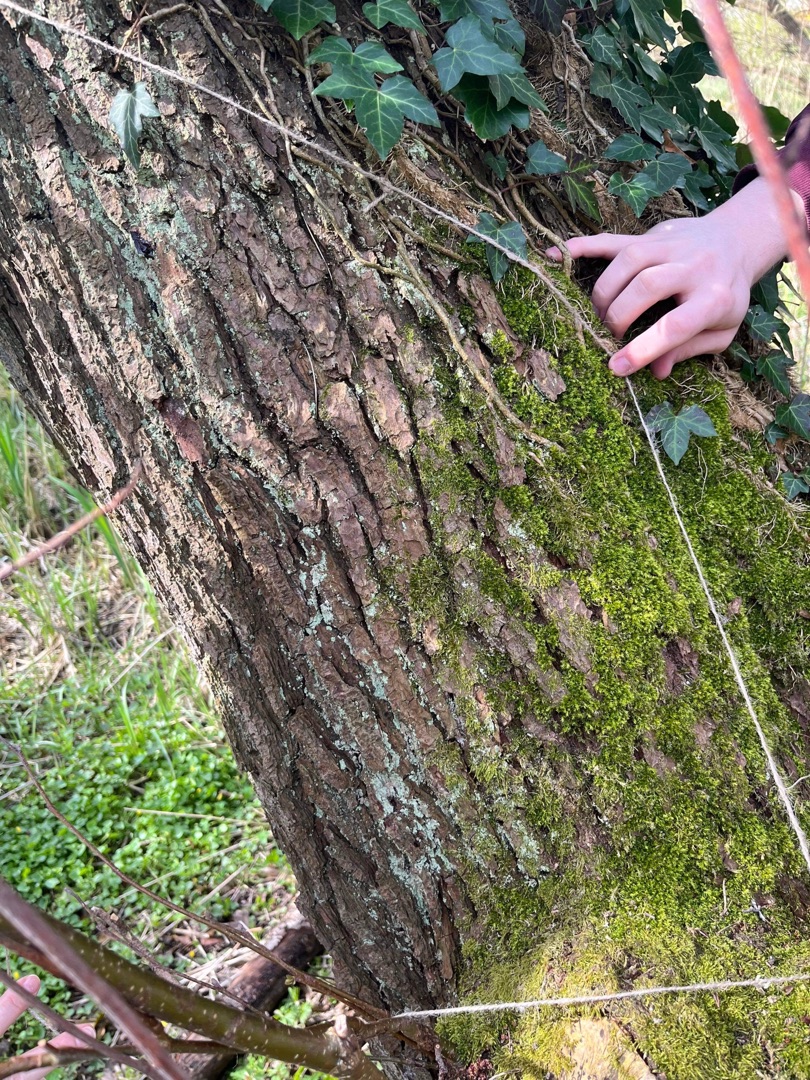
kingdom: Fungi
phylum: Ascomycota
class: Lecanoromycetes
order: Lecanorales
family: Stereocaulaceae
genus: Lepraria
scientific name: Lepraria
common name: Støvlav
